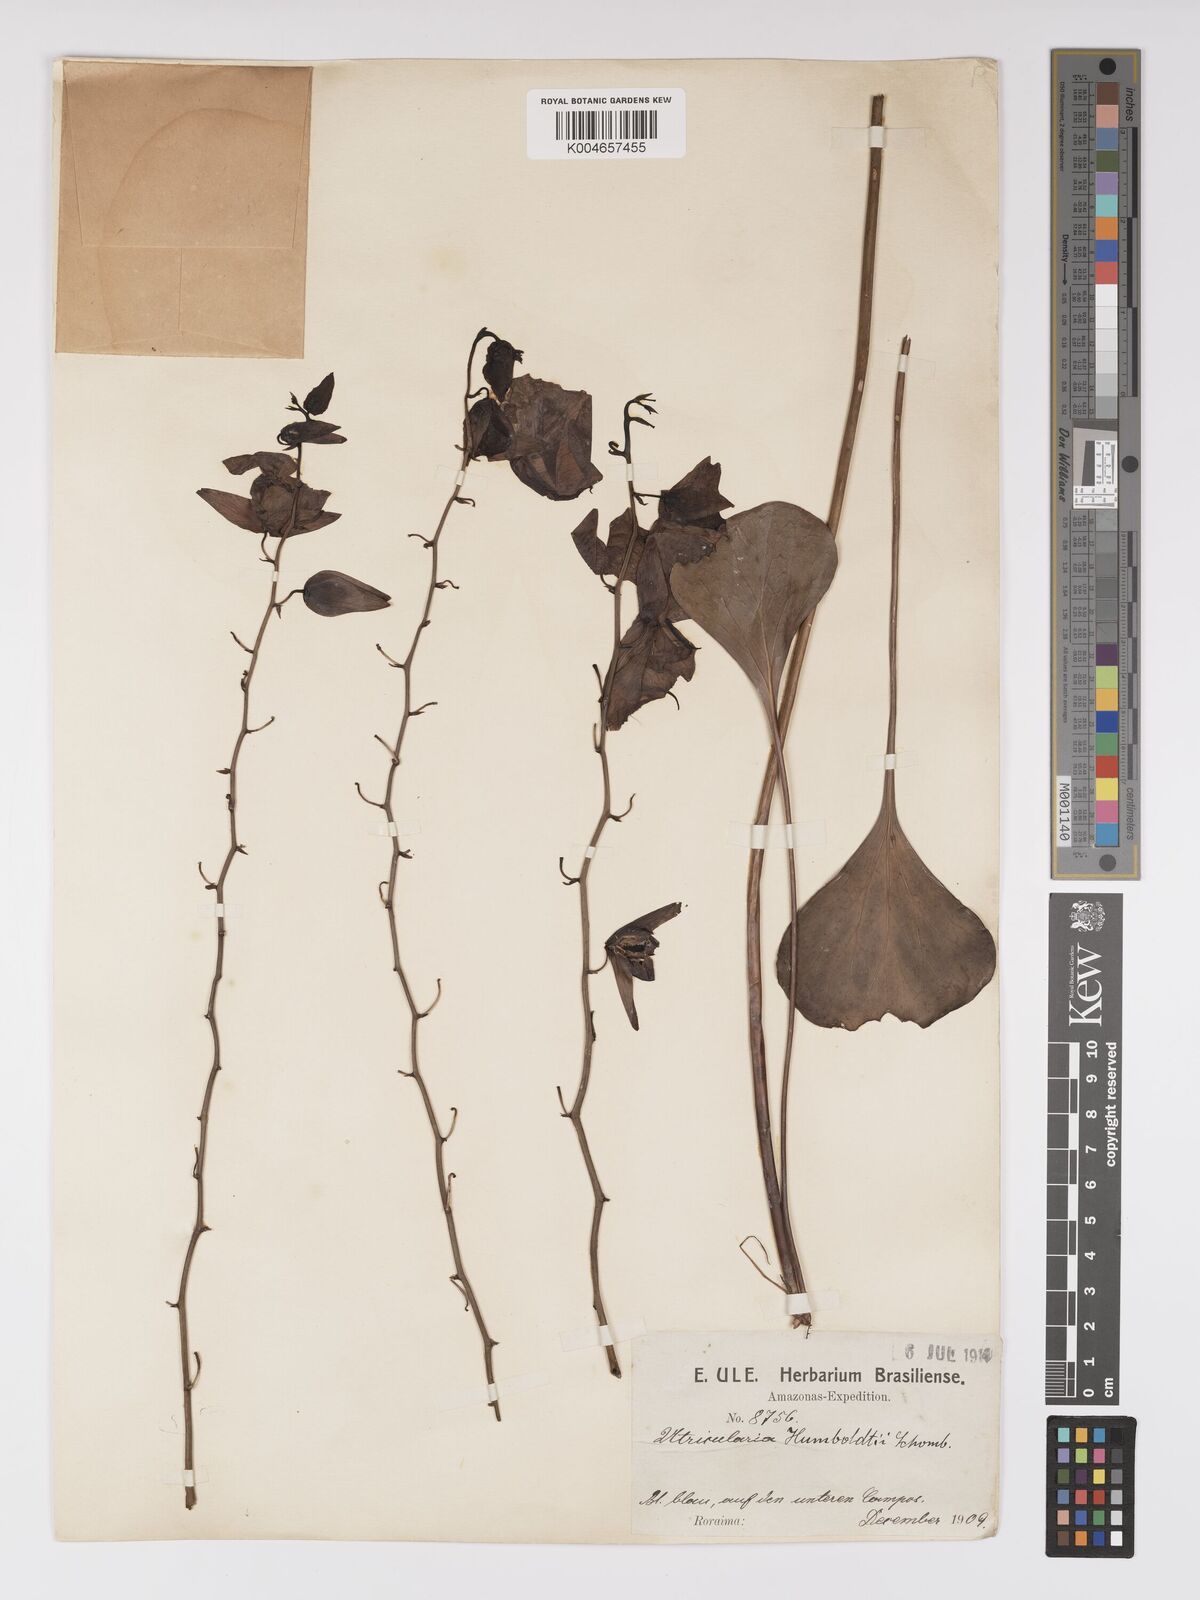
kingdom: Plantae
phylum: Tracheophyta
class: Magnoliopsida
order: Lamiales
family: Lentibulariaceae
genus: Utricularia
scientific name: Utricularia humboldtii
